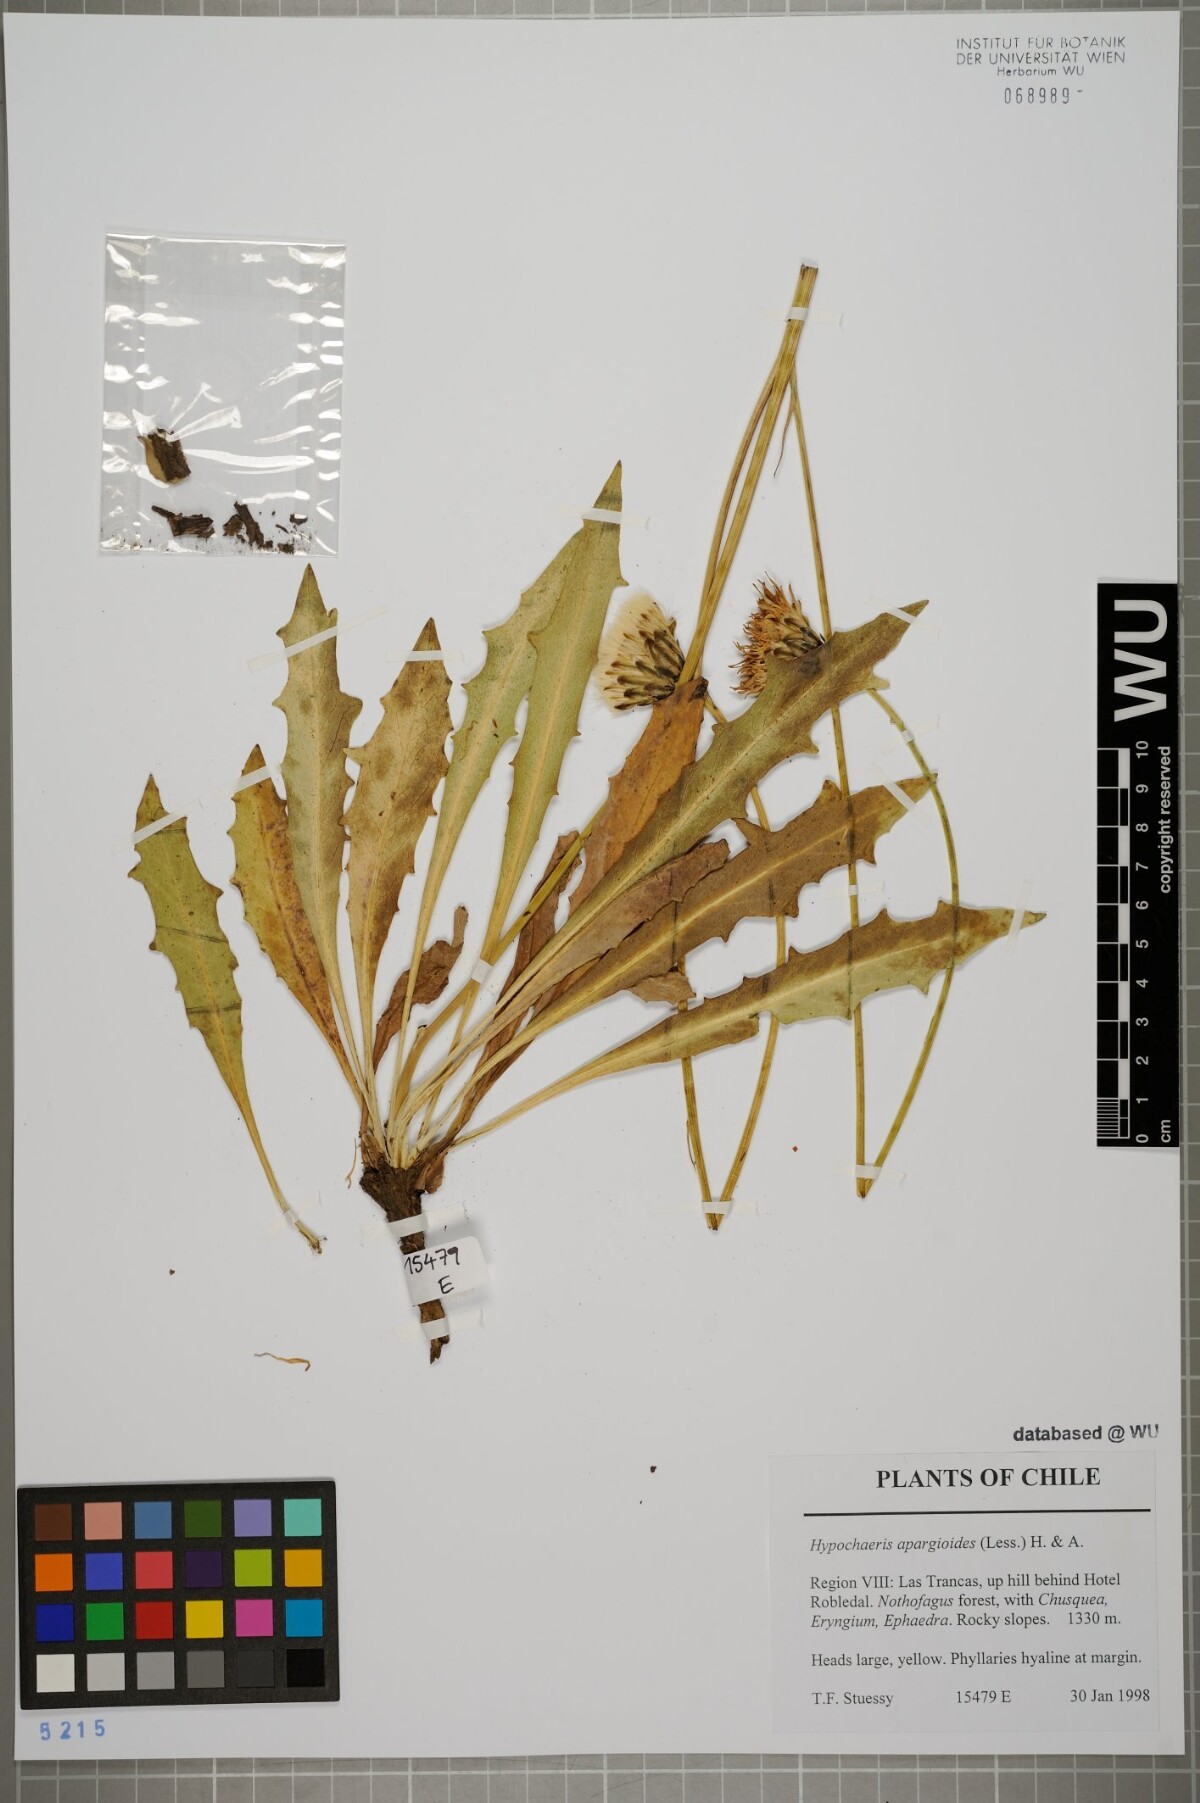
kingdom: Plantae
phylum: Tracheophyta
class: Magnoliopsida
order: Asterales
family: Asteraceae
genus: Hypochaeris
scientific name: Hypochaeris apargioides
